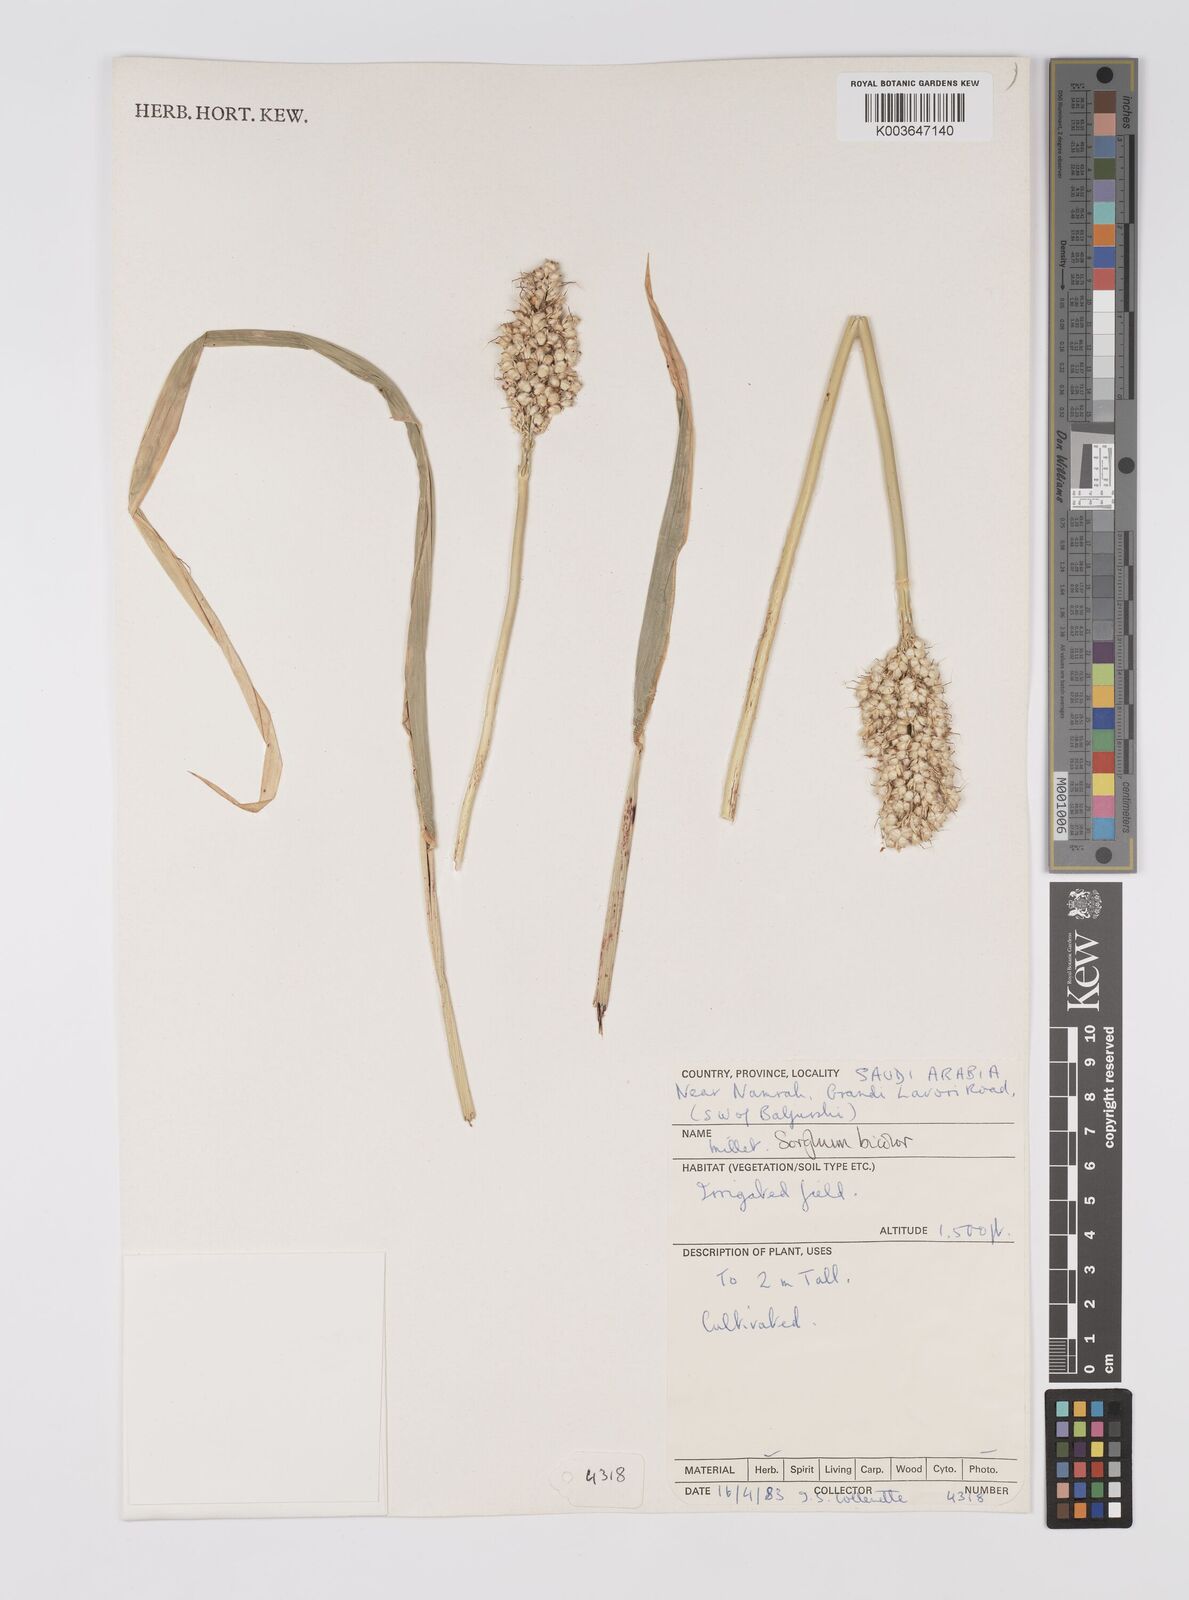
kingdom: Plantae
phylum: Tracheophyta
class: Liliopsida
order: Poales
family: Poaceae
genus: Sorghum
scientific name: Sorghum bicolor
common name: Sorghum
